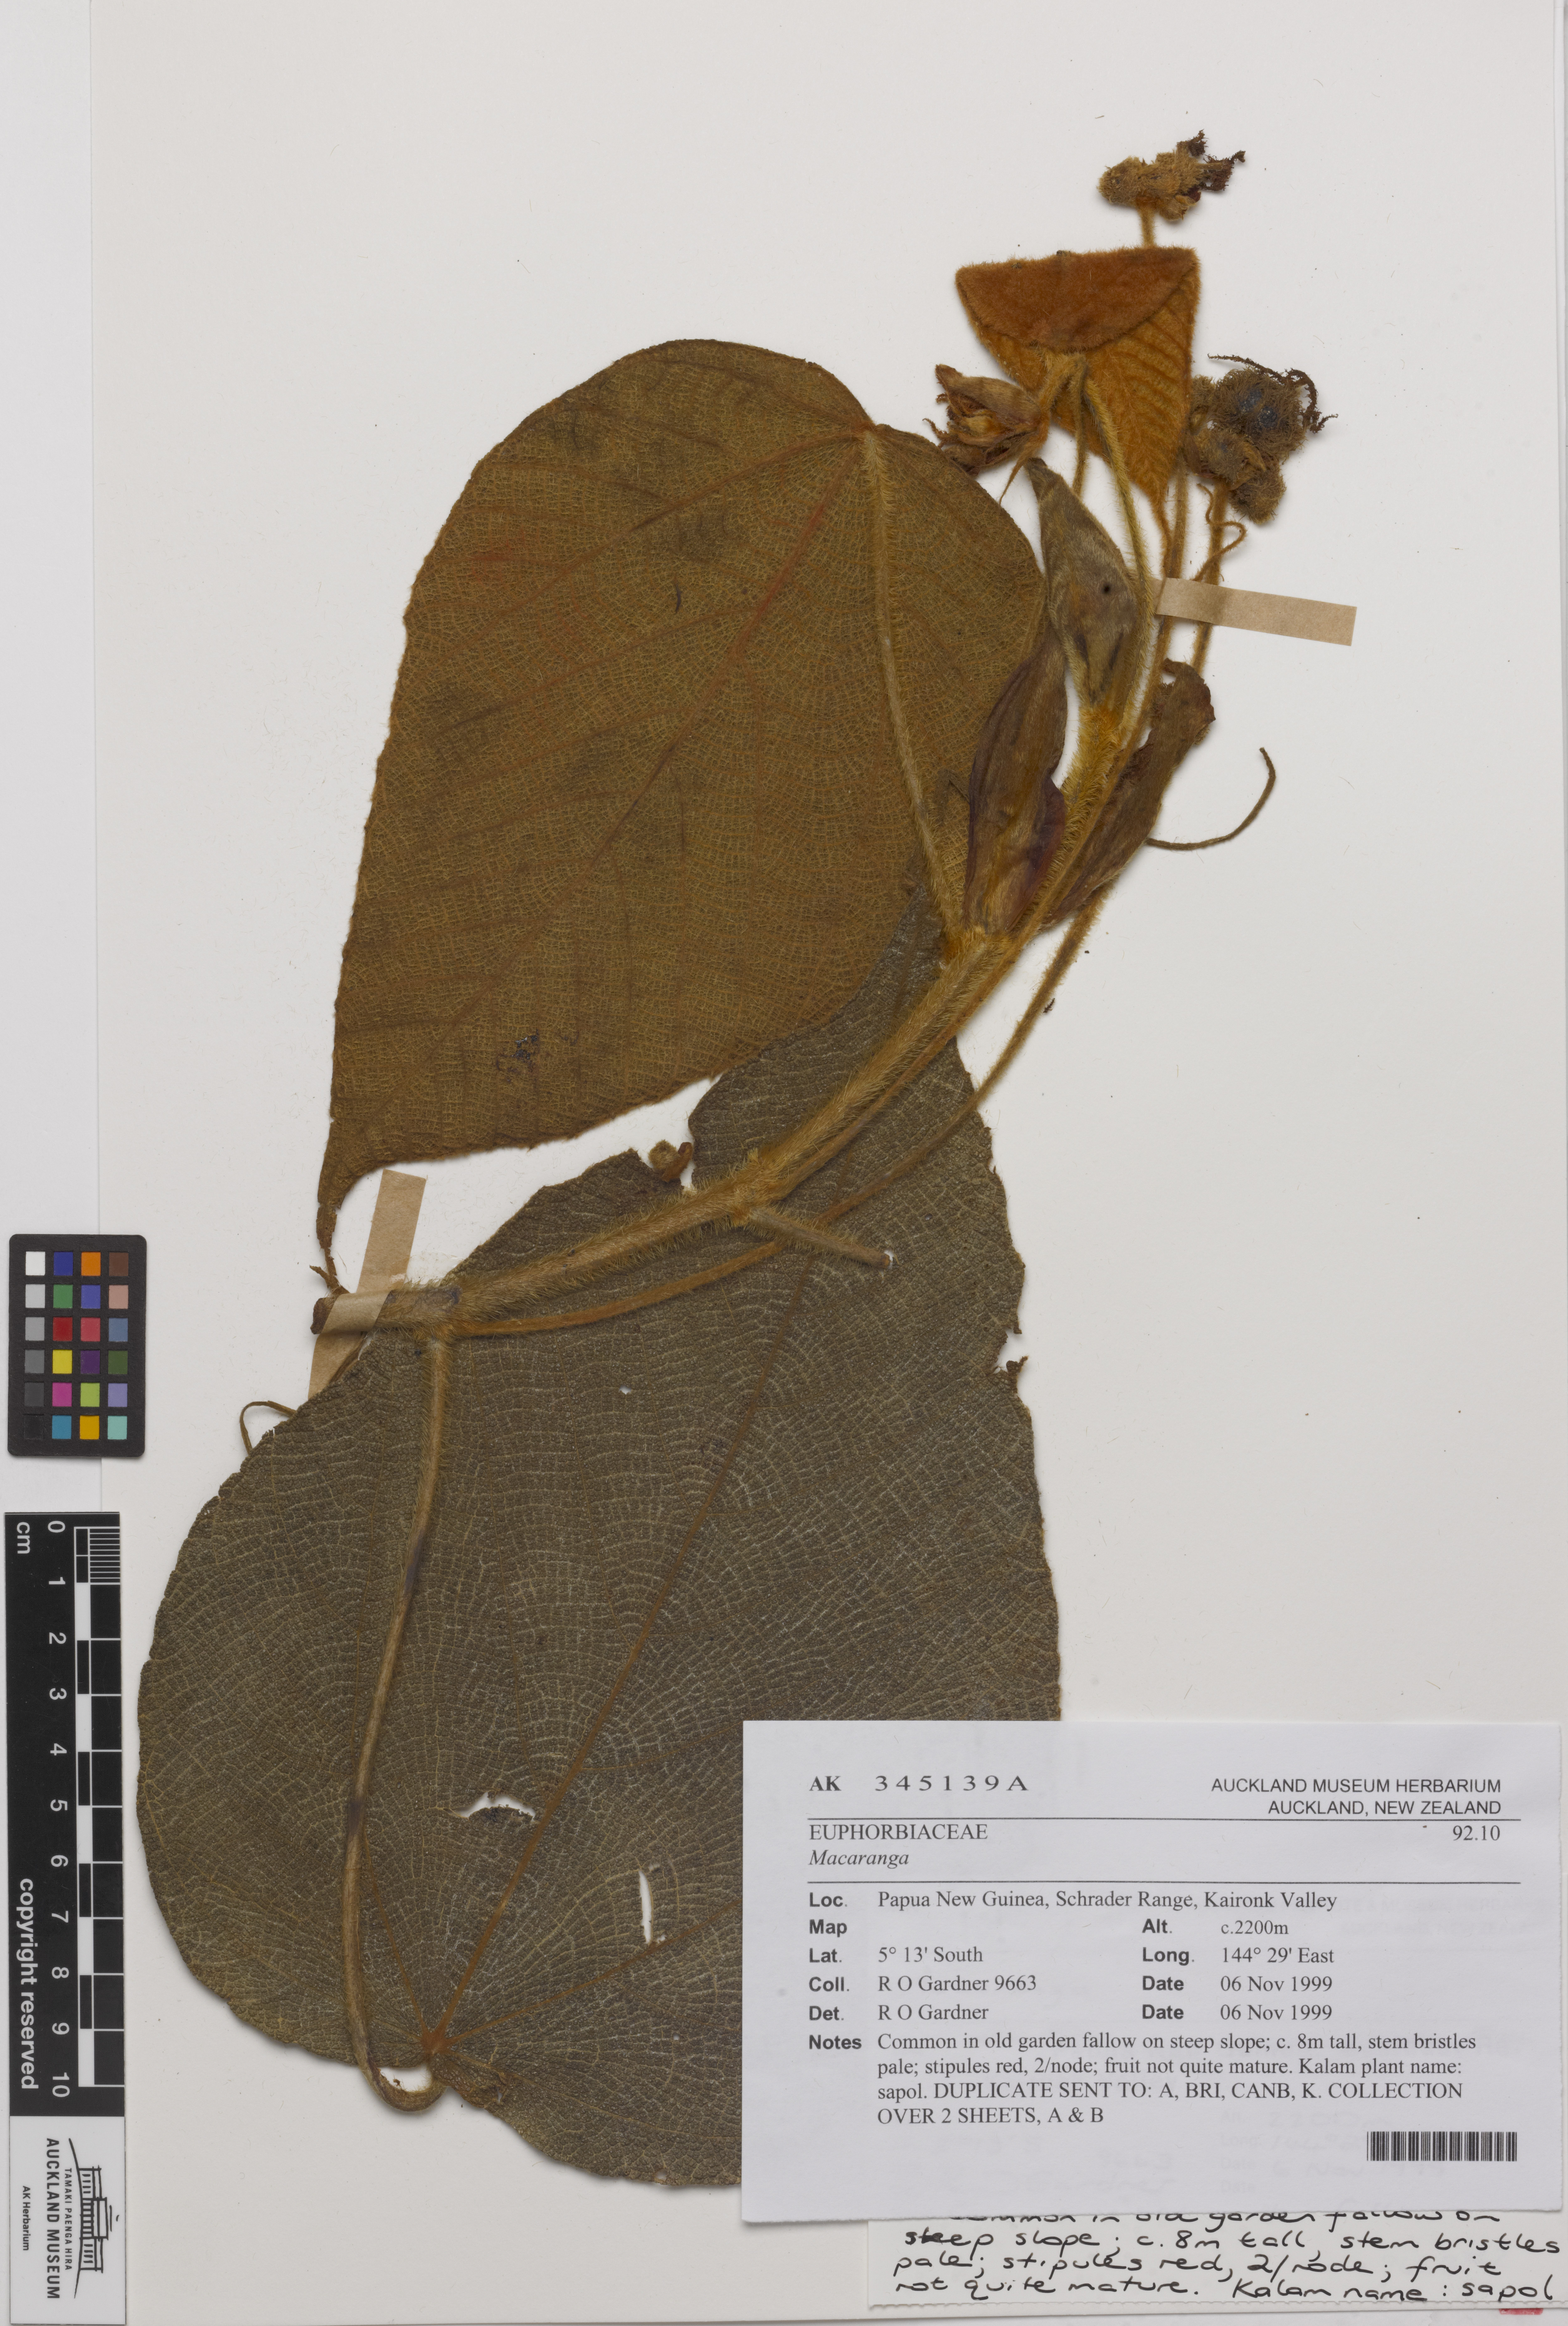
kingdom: Plantae
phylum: Tracheophyta
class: Magnoliopsida
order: Malpighiales
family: Euphorbiaceae
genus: Macaranga
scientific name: Macaranga
